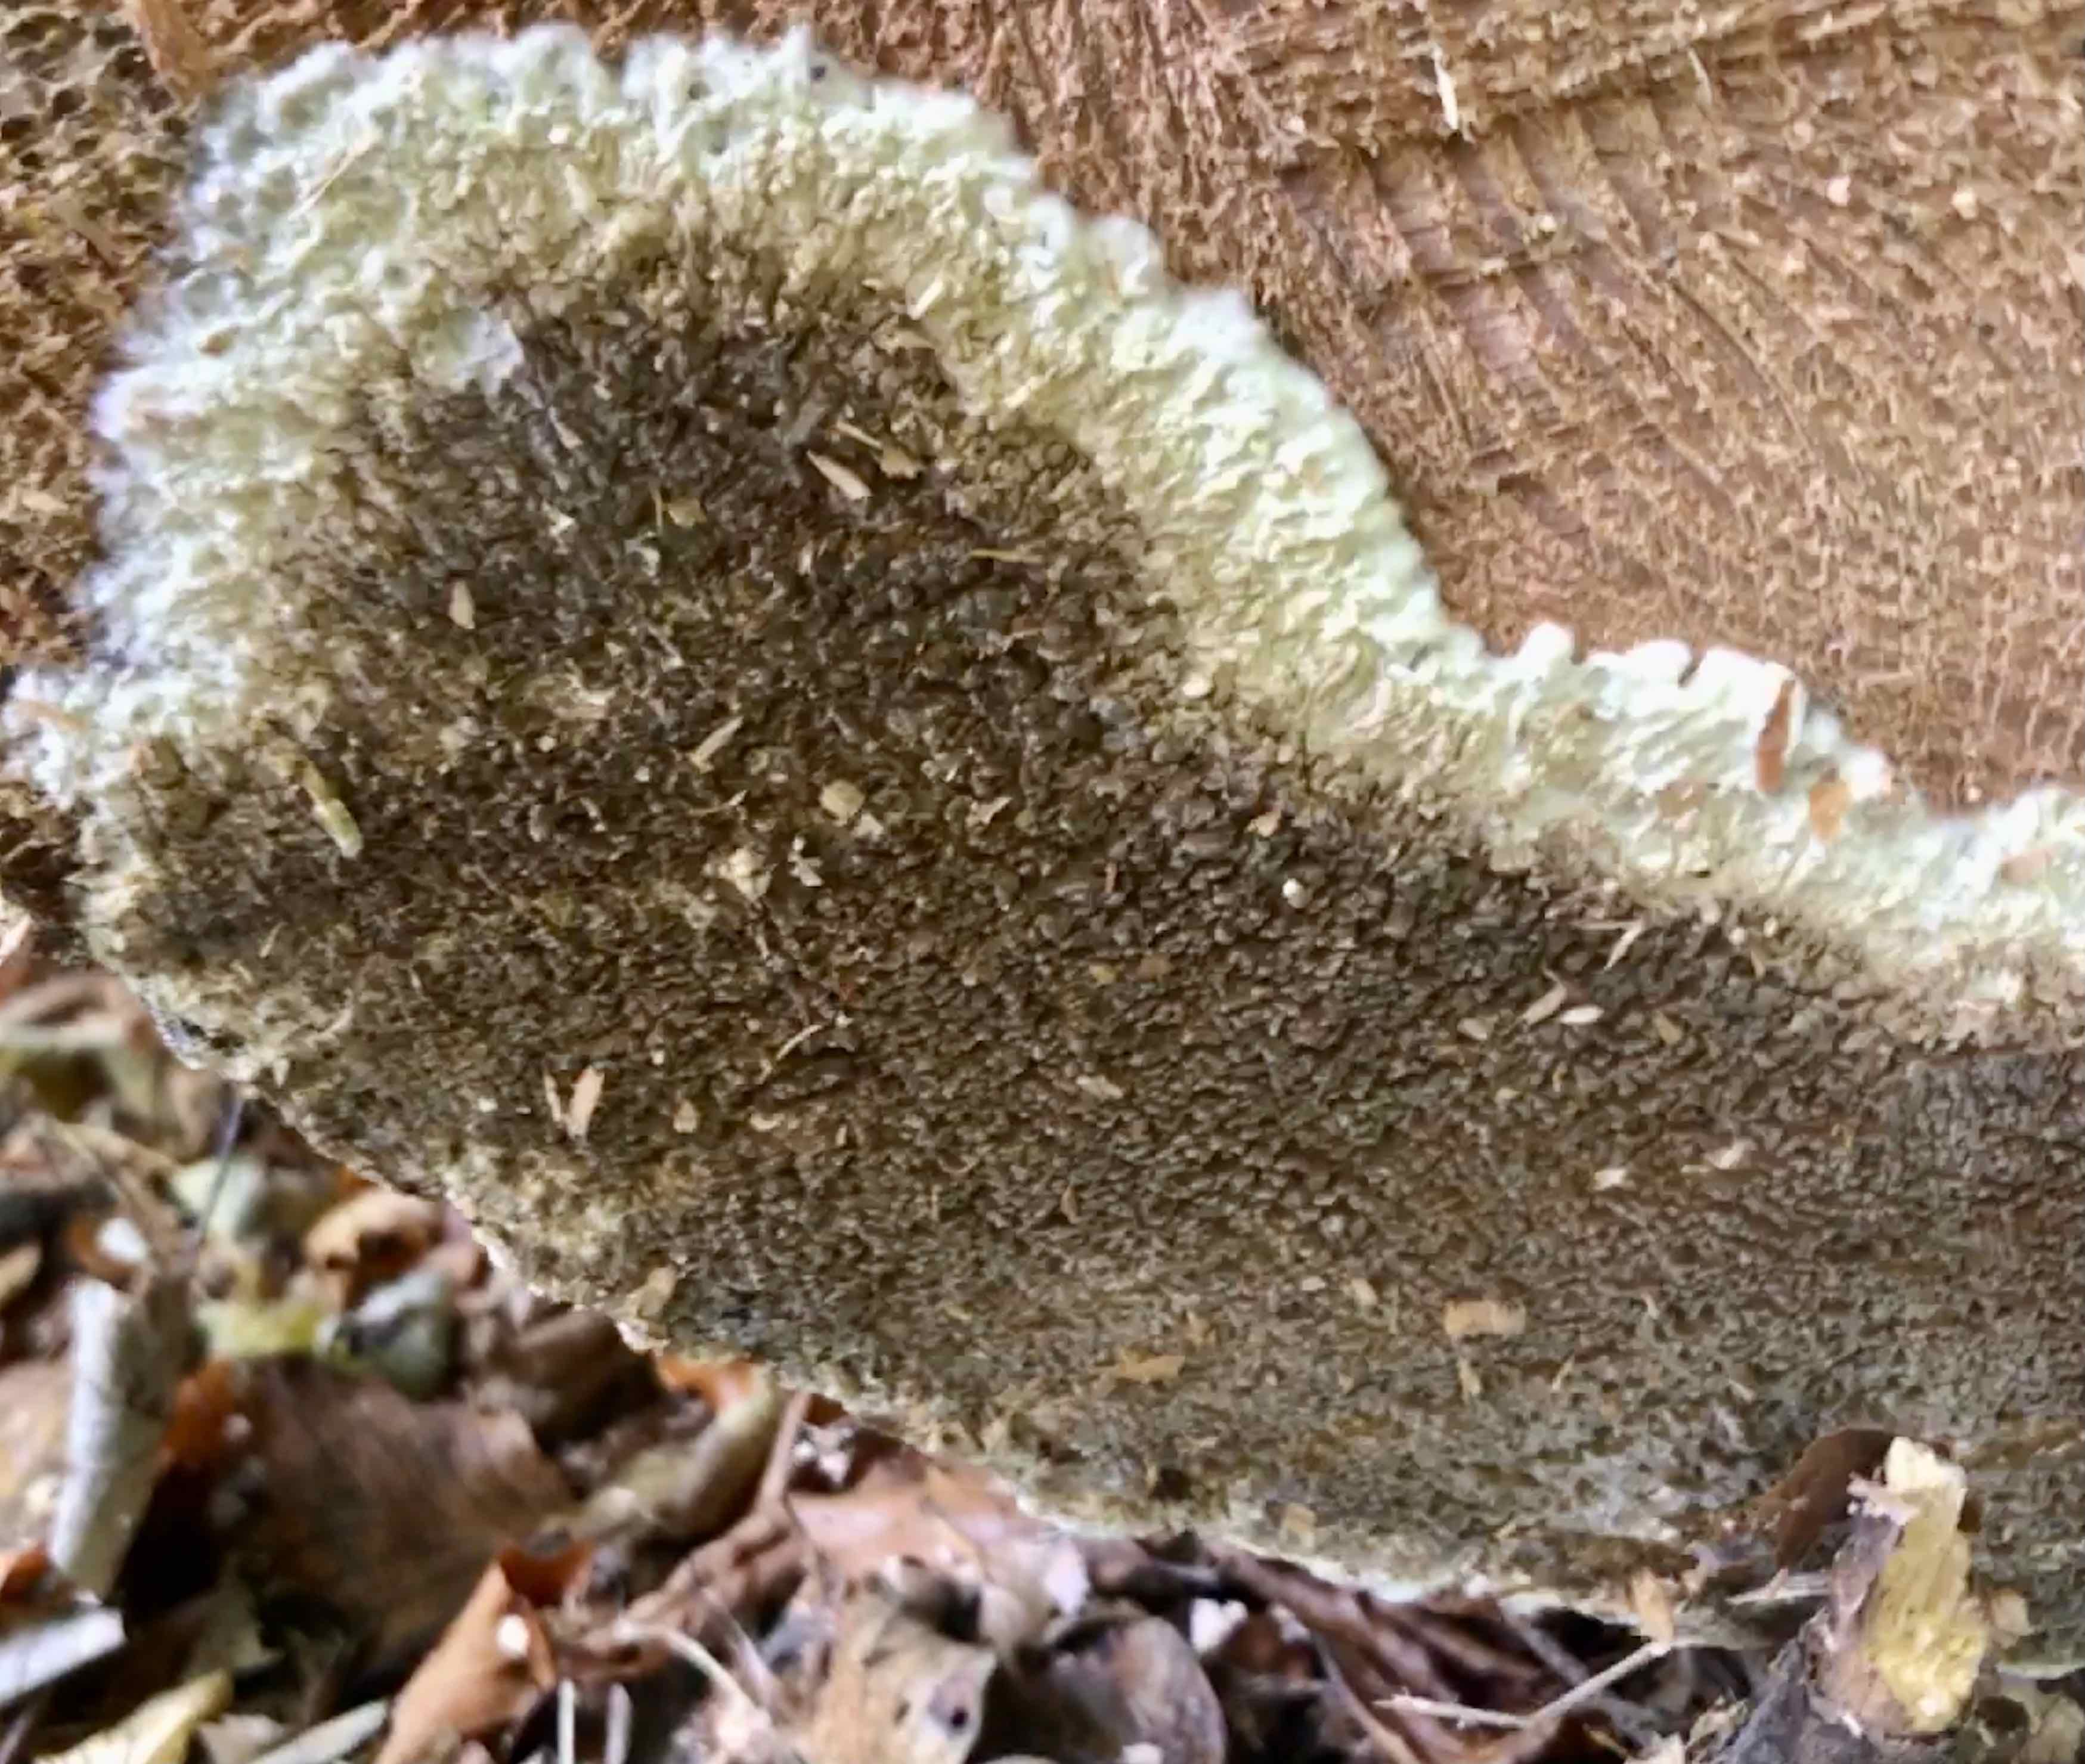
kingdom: Fungi
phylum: Basidiomycota
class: Agaricomycetes
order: Boletales
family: Coniophoraceae
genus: Coniophora
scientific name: Coniophora puteana
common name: gul tømmersvamp
